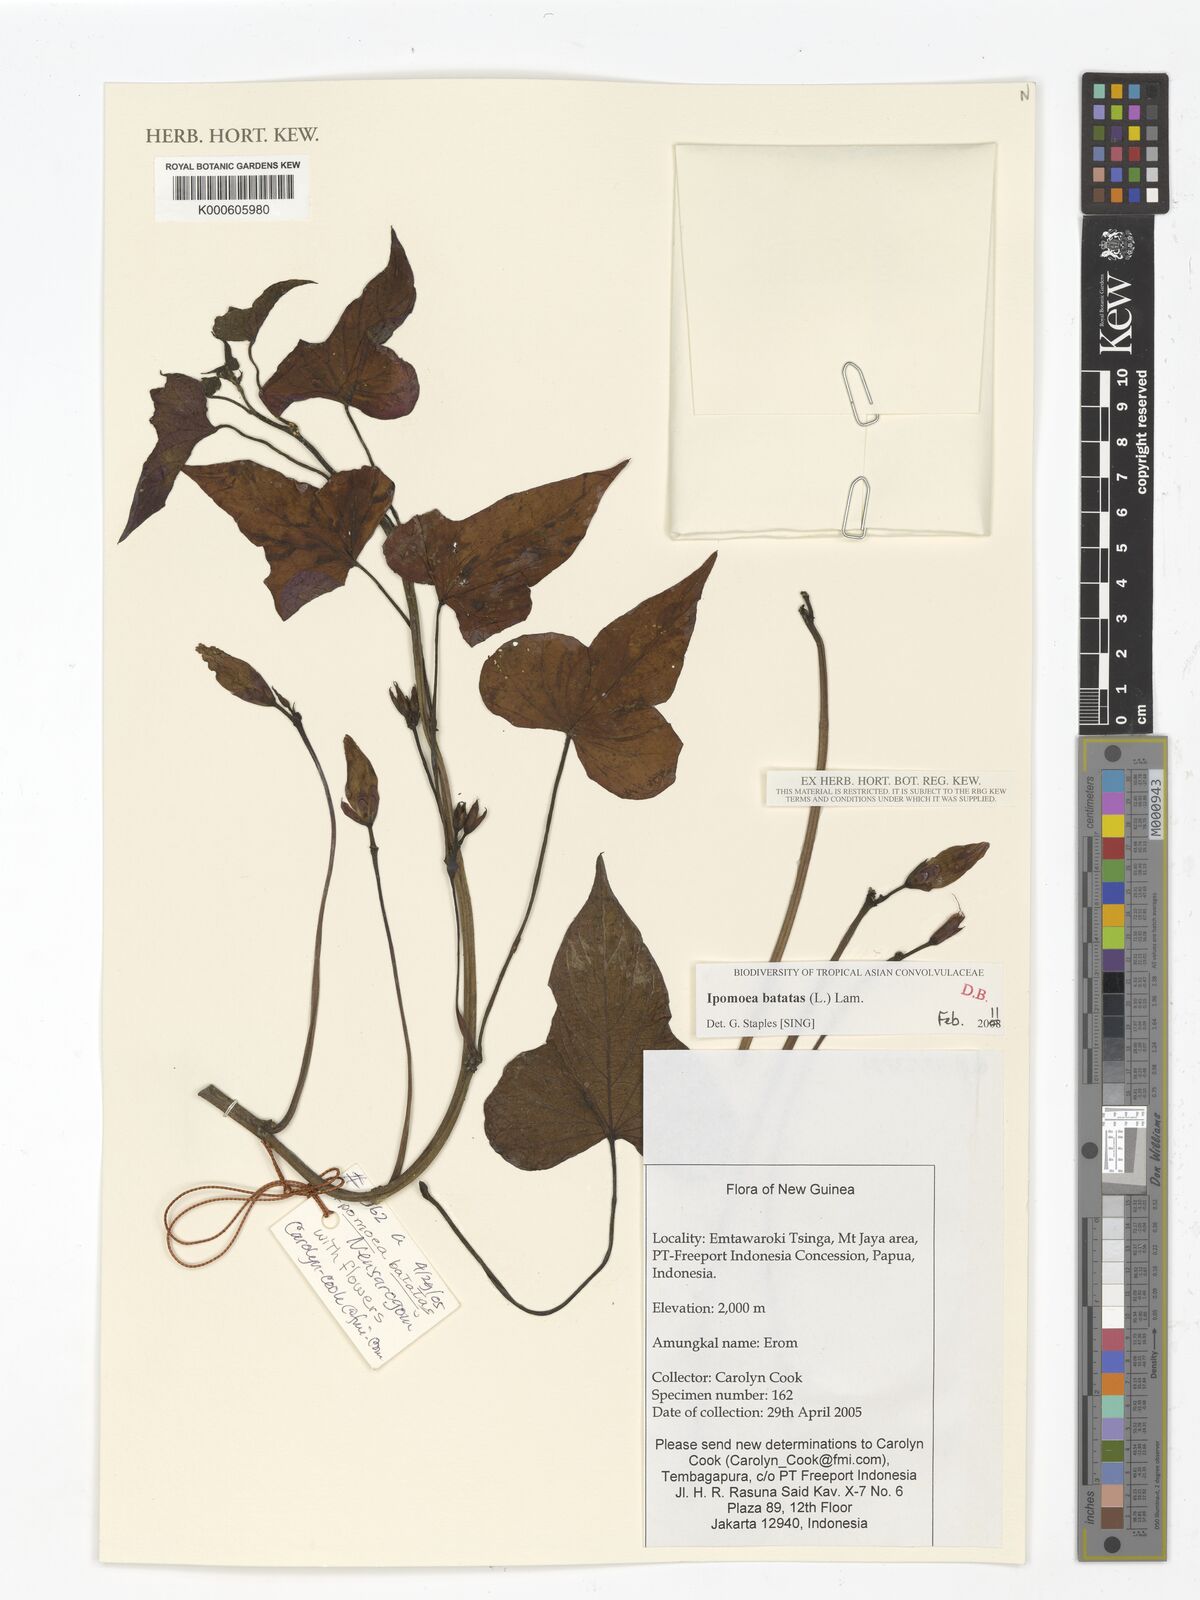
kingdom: Plantae
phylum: Tracheophyta
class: Magnoliopsida
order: Solanales
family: Convolvulaceae
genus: Ipomoea
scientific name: Ipomoea batatas
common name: Sweet-potato
